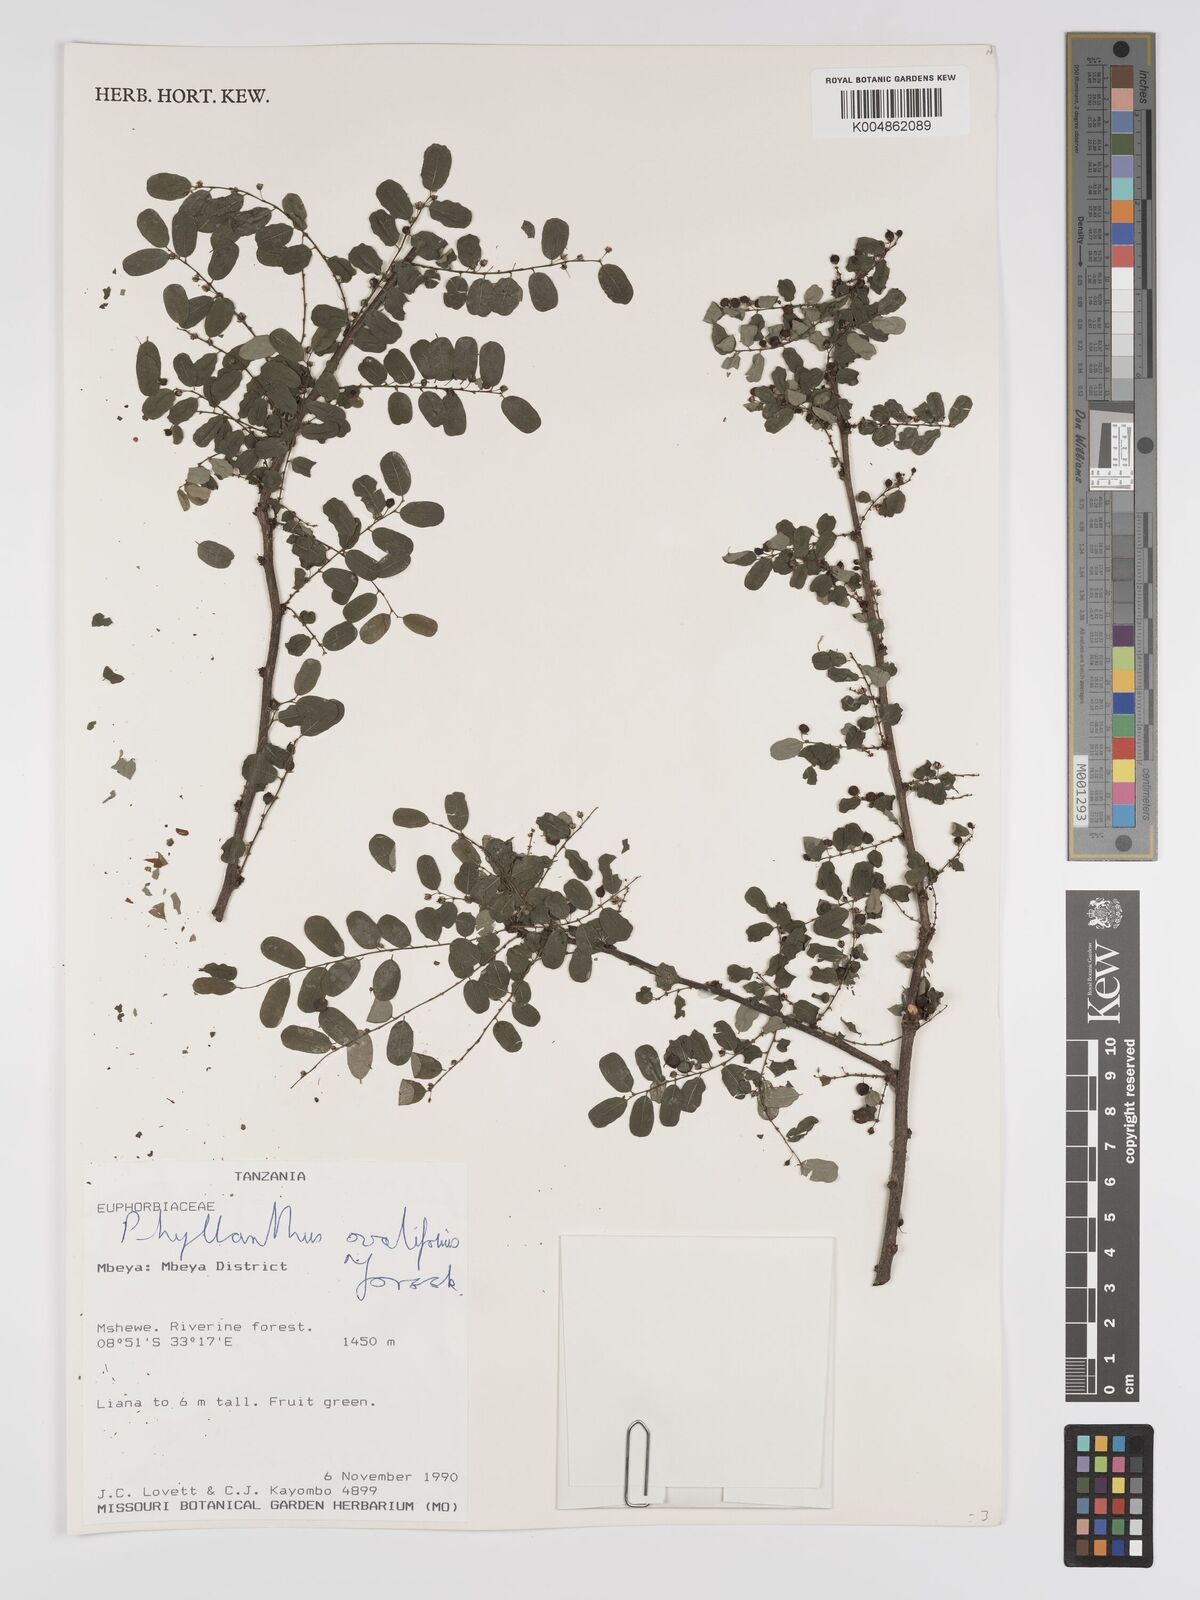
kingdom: Plantae
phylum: Tracheophyta
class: Magnoliopsida
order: Malpighiales
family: Phyllanthaceae
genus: Phyllanthus
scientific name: Phyllanthus ovalifolius
